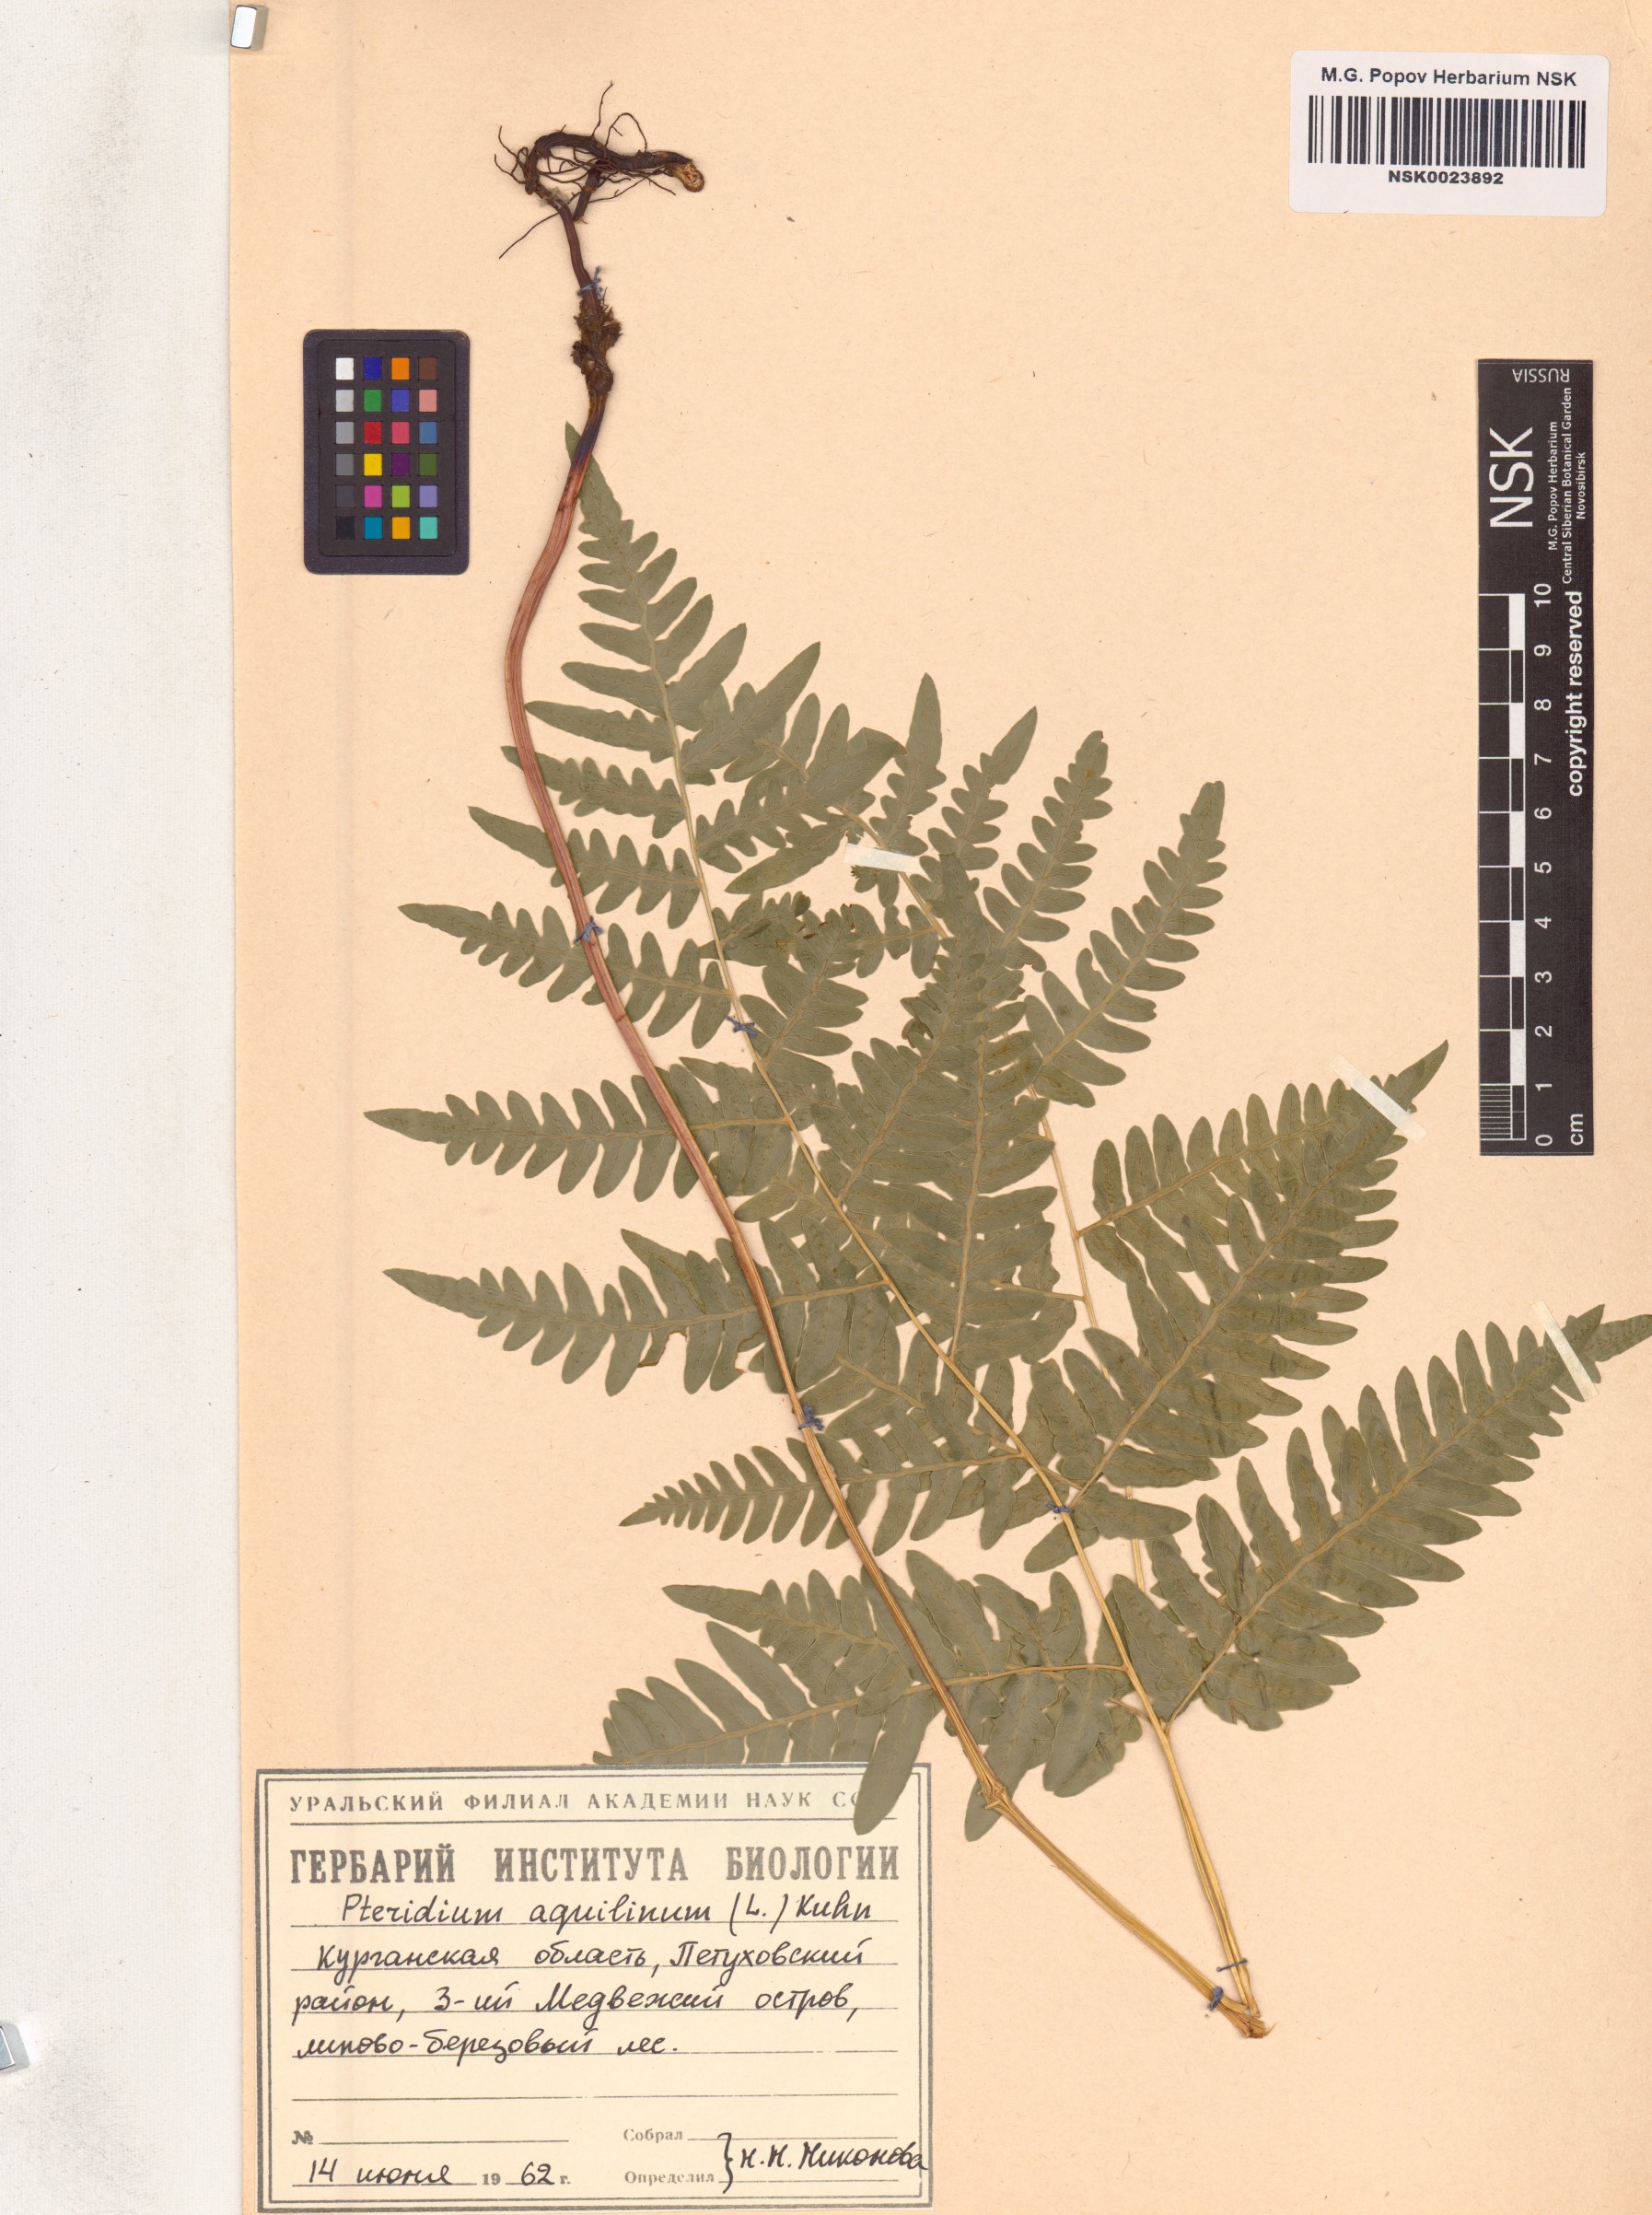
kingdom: Plantae
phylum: Tracheophyta
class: Polypodiopsida
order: Polypodiales
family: Dennstaedtiaceae
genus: Pteridium
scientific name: Pteridium aquilinum
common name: Bracken
